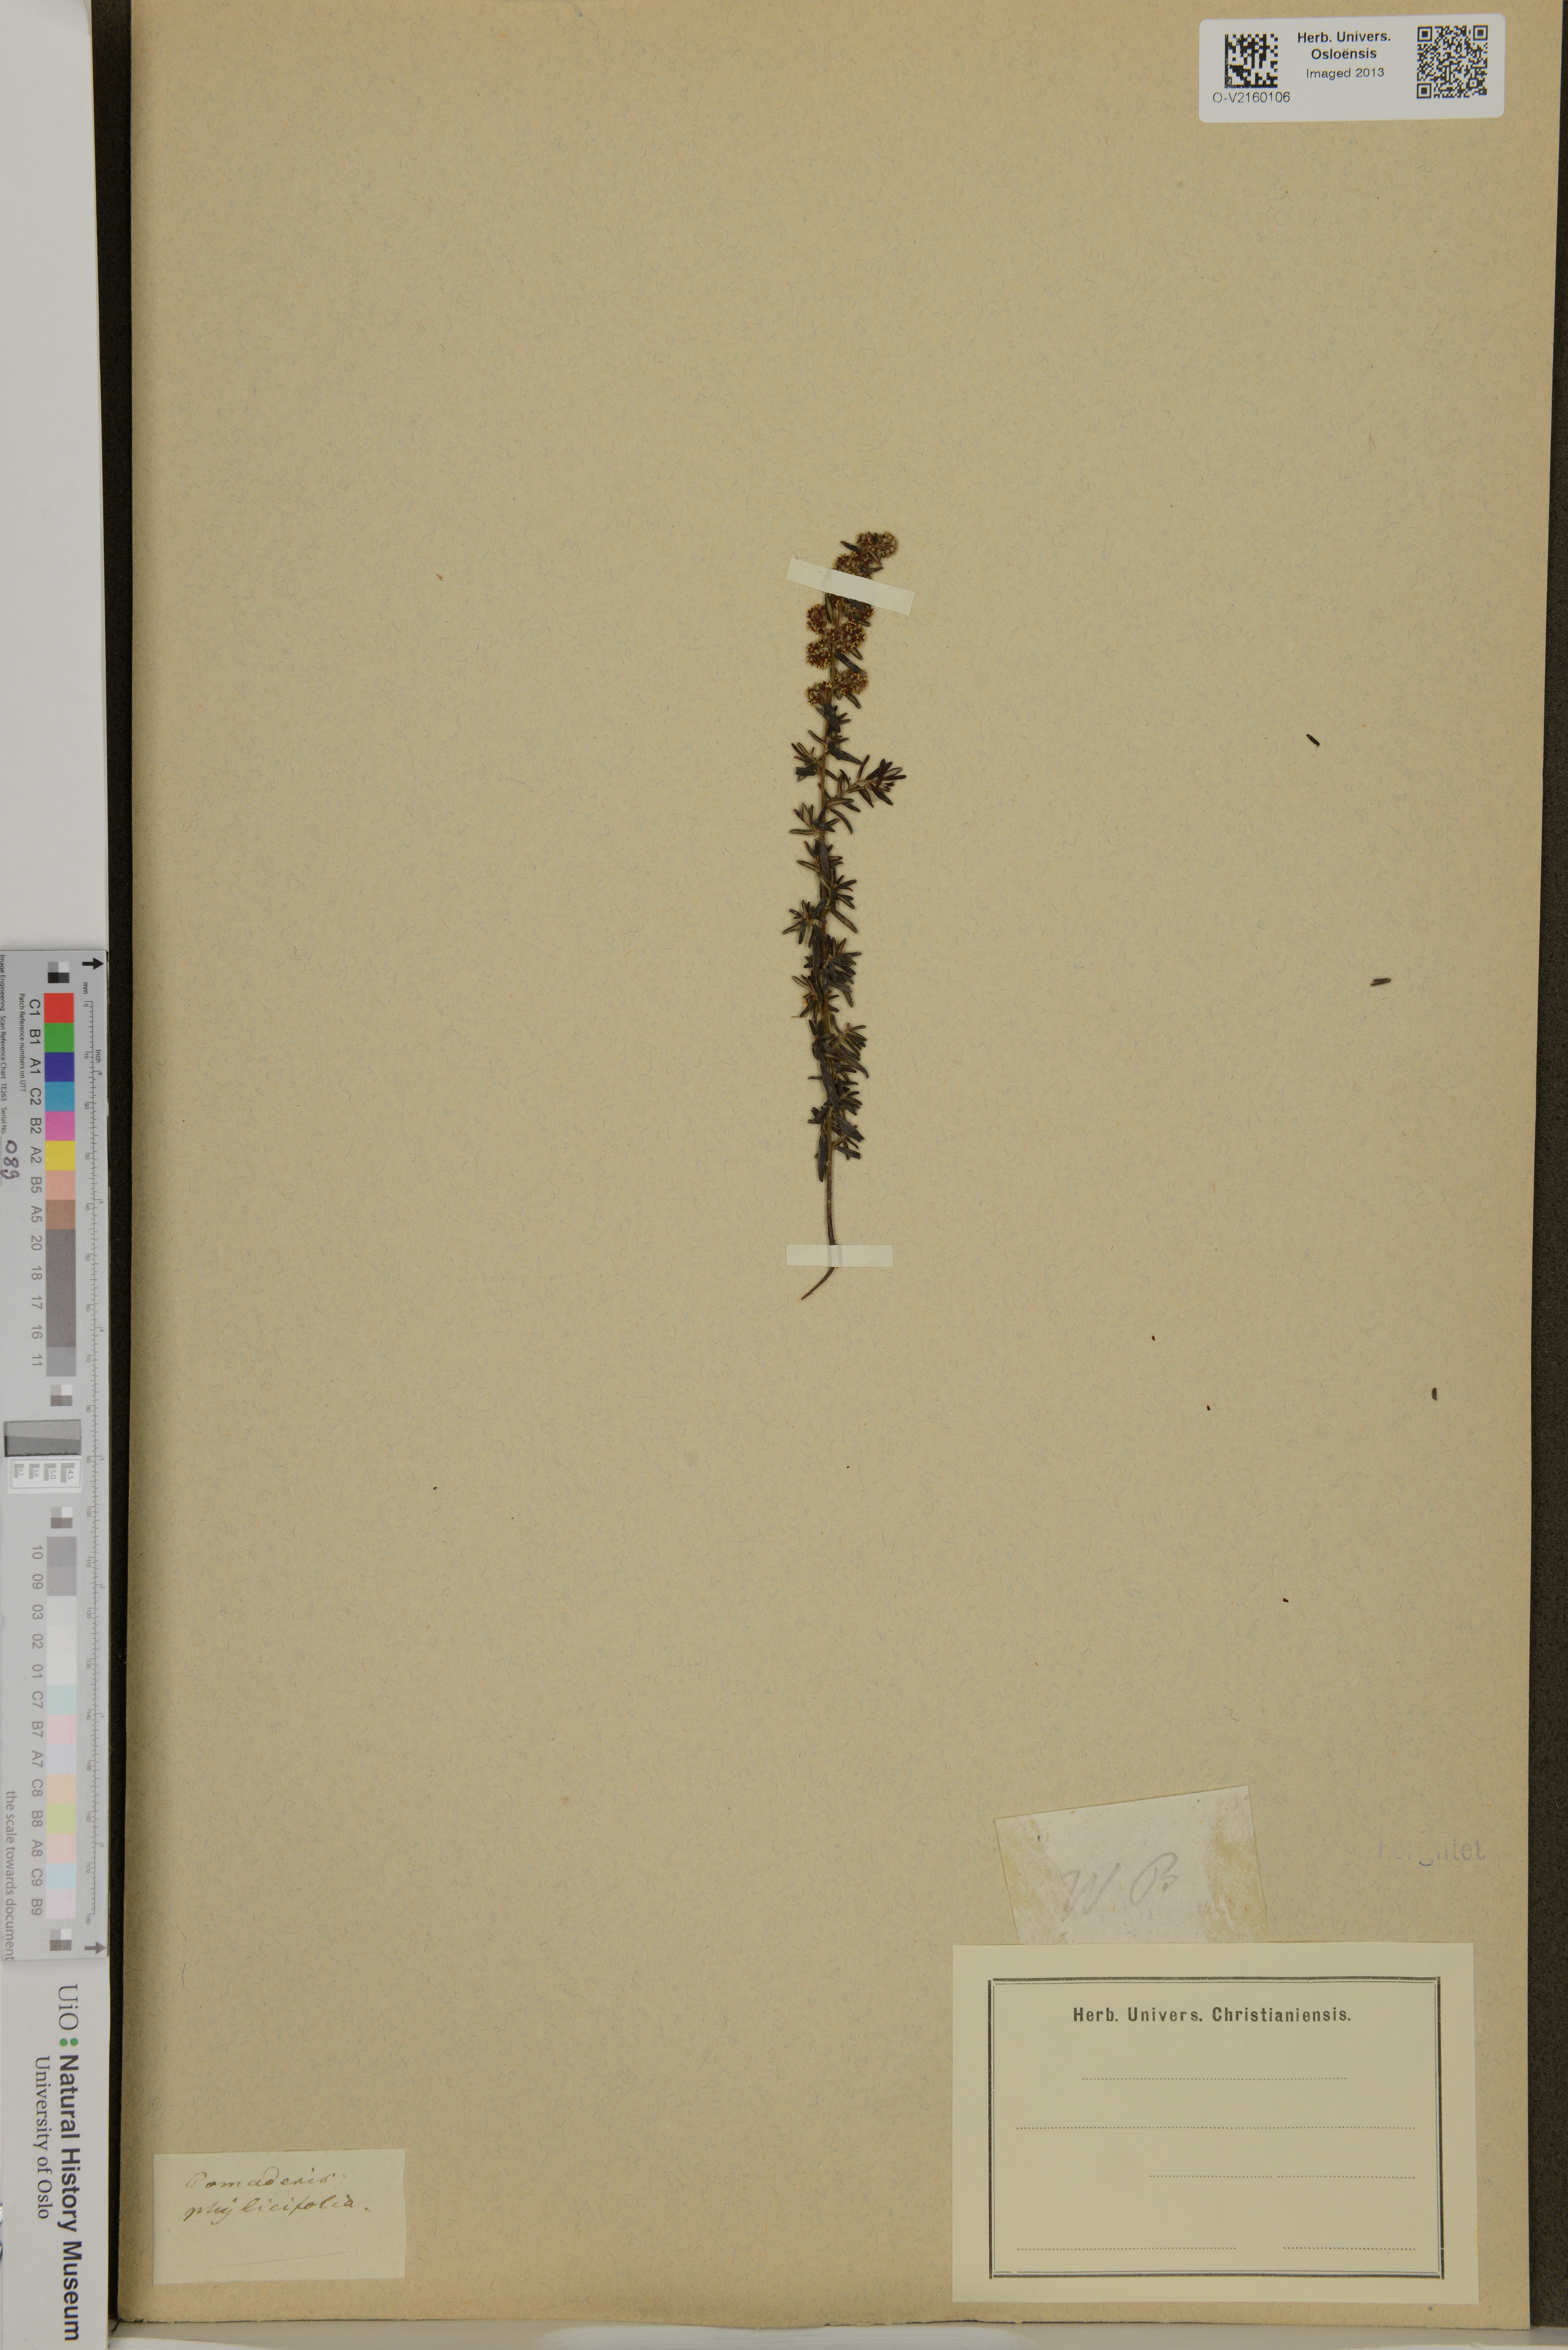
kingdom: Plantae
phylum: Tracheophyta
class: Magnoliopsida
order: Rosales
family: Rhamnaceae
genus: Pomaderris
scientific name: Pomaderris phylicifolia
